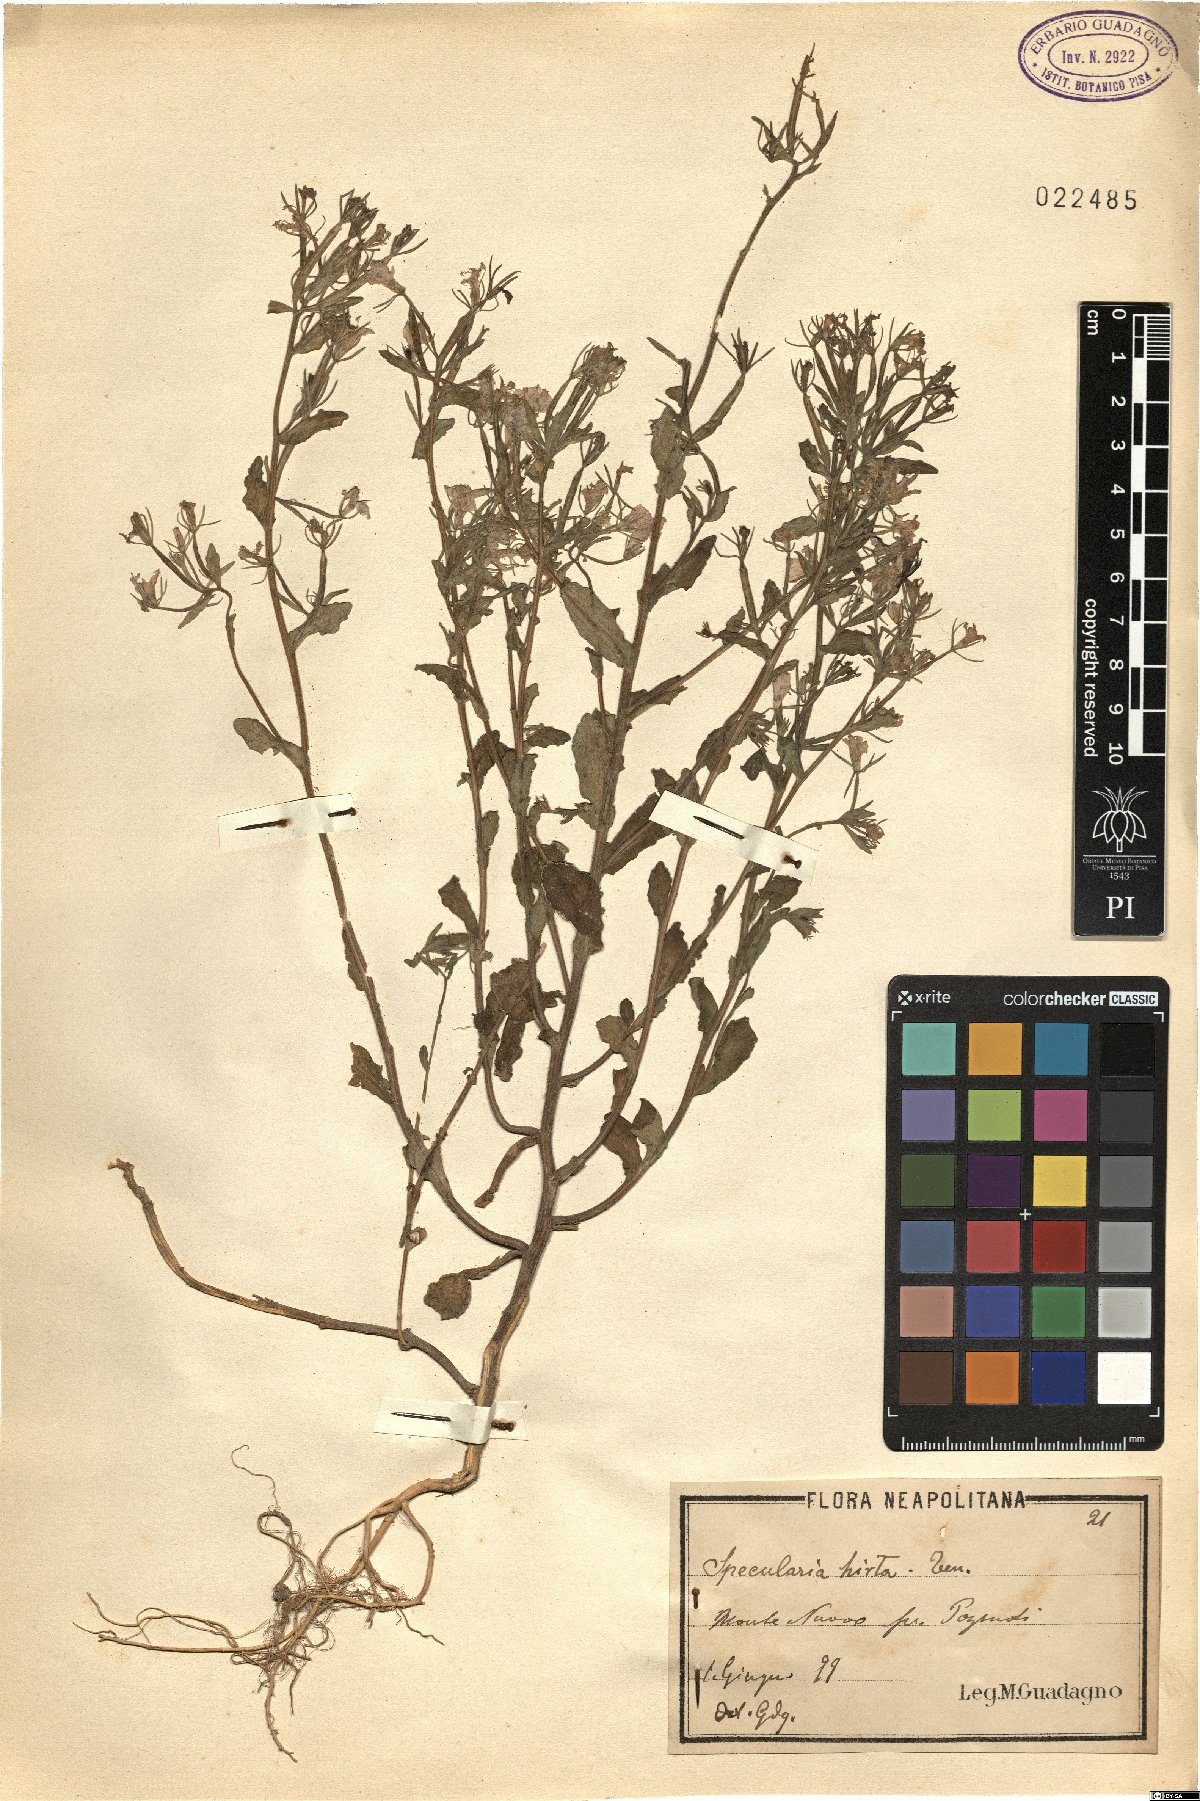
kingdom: Plantae
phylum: Tracheophyta
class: Magnoliopsida
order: Asterales
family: Campanulaceae
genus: Legousia
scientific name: Legousia speculum-veneris
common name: Large venus's-looking-glass
